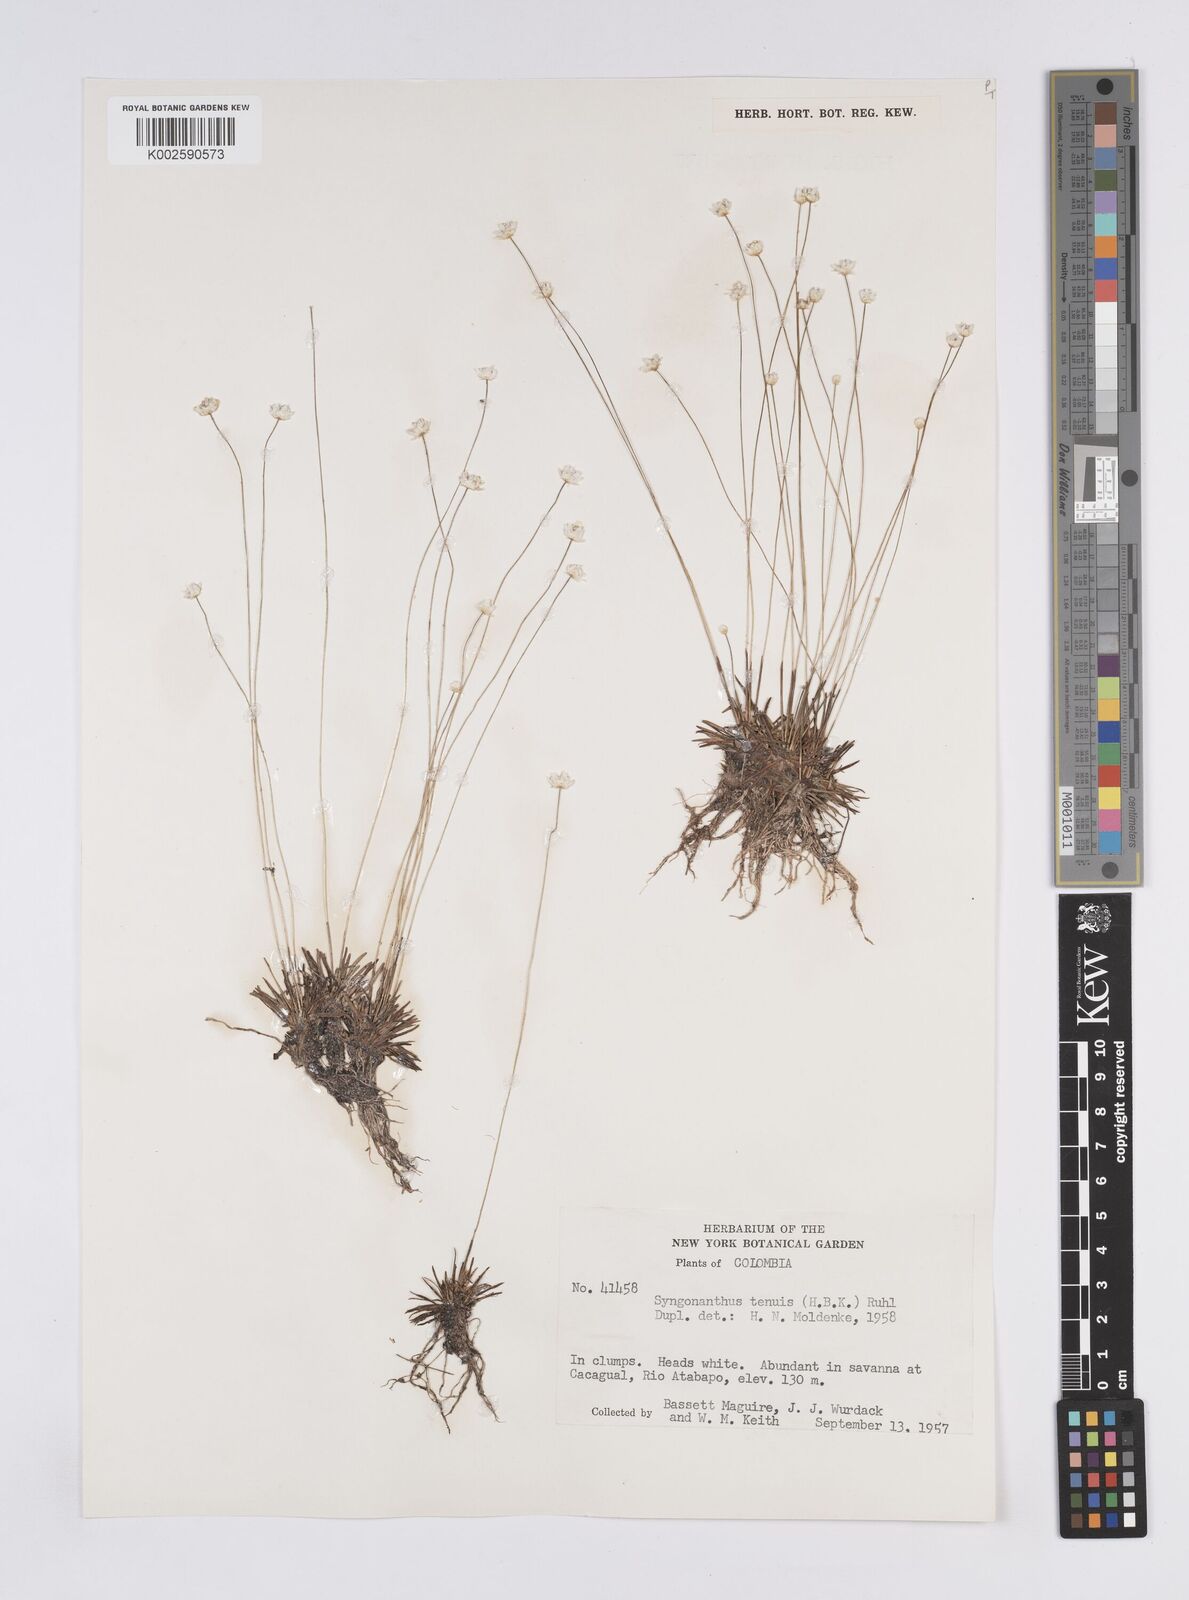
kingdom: Plantae
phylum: Tracheophyta
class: Liliopsida
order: Poales
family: Eriocaulaceae
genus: Syngonanthus
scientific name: Syngonanthus tenuis
